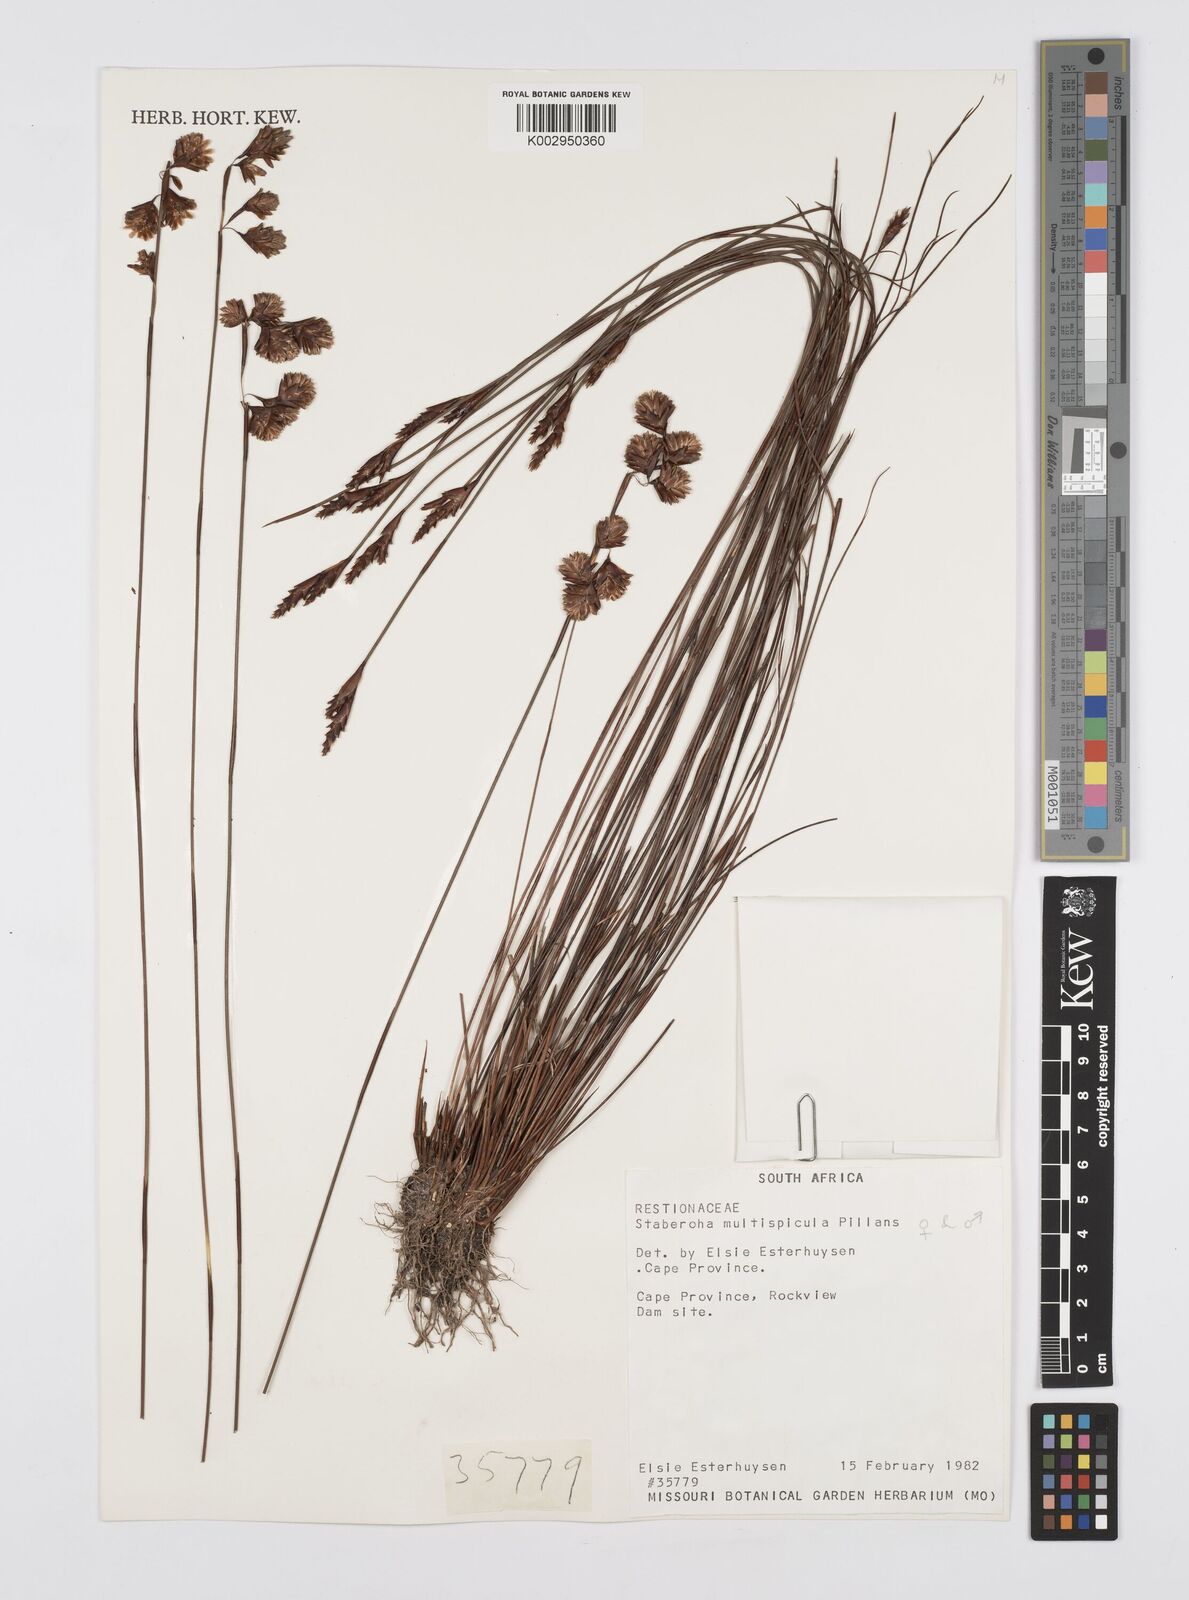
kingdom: Plantae
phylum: Tracheophyta
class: Liliopsida
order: Poales
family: Restionaceae
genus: Staberoha
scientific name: Staberoha multispicula
